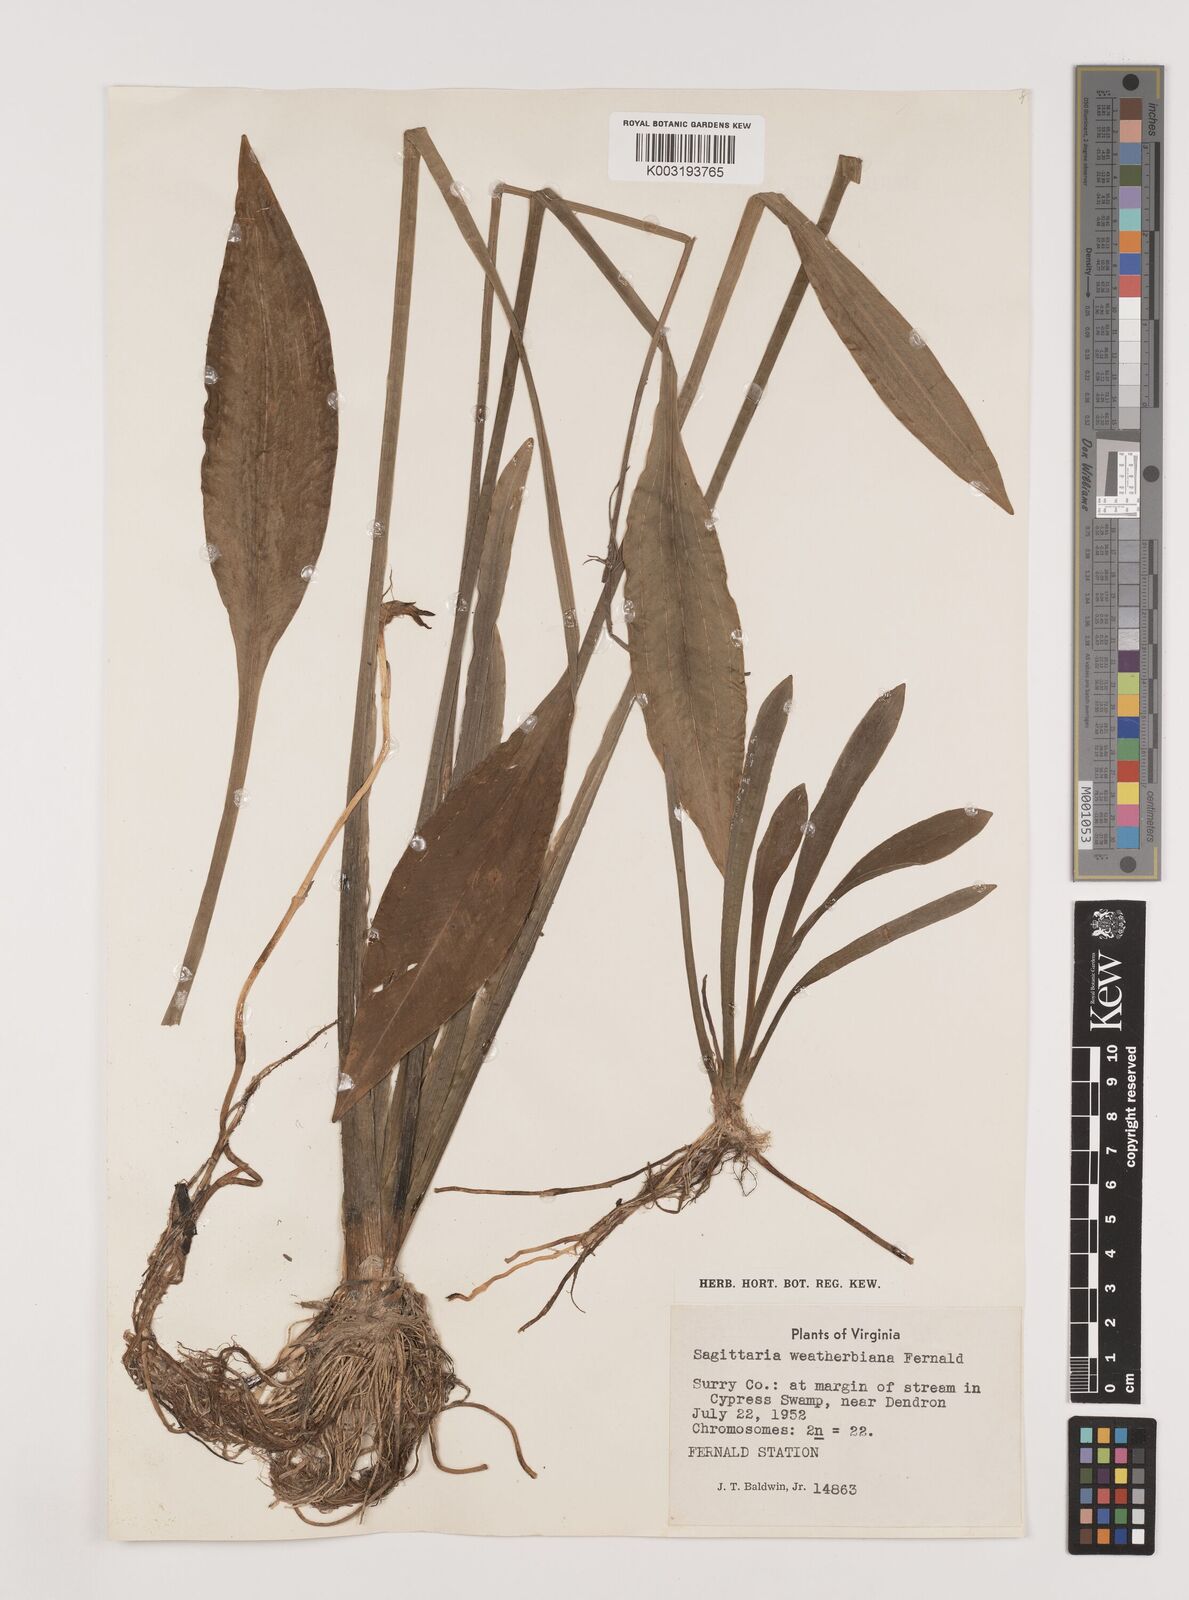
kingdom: Plantae
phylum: Tracheophyta
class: Liliopsida
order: Alismatales
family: Alismataceae
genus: Sagittaria
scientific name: Sagittaria graminea
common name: Grass-leaved arrowhead
